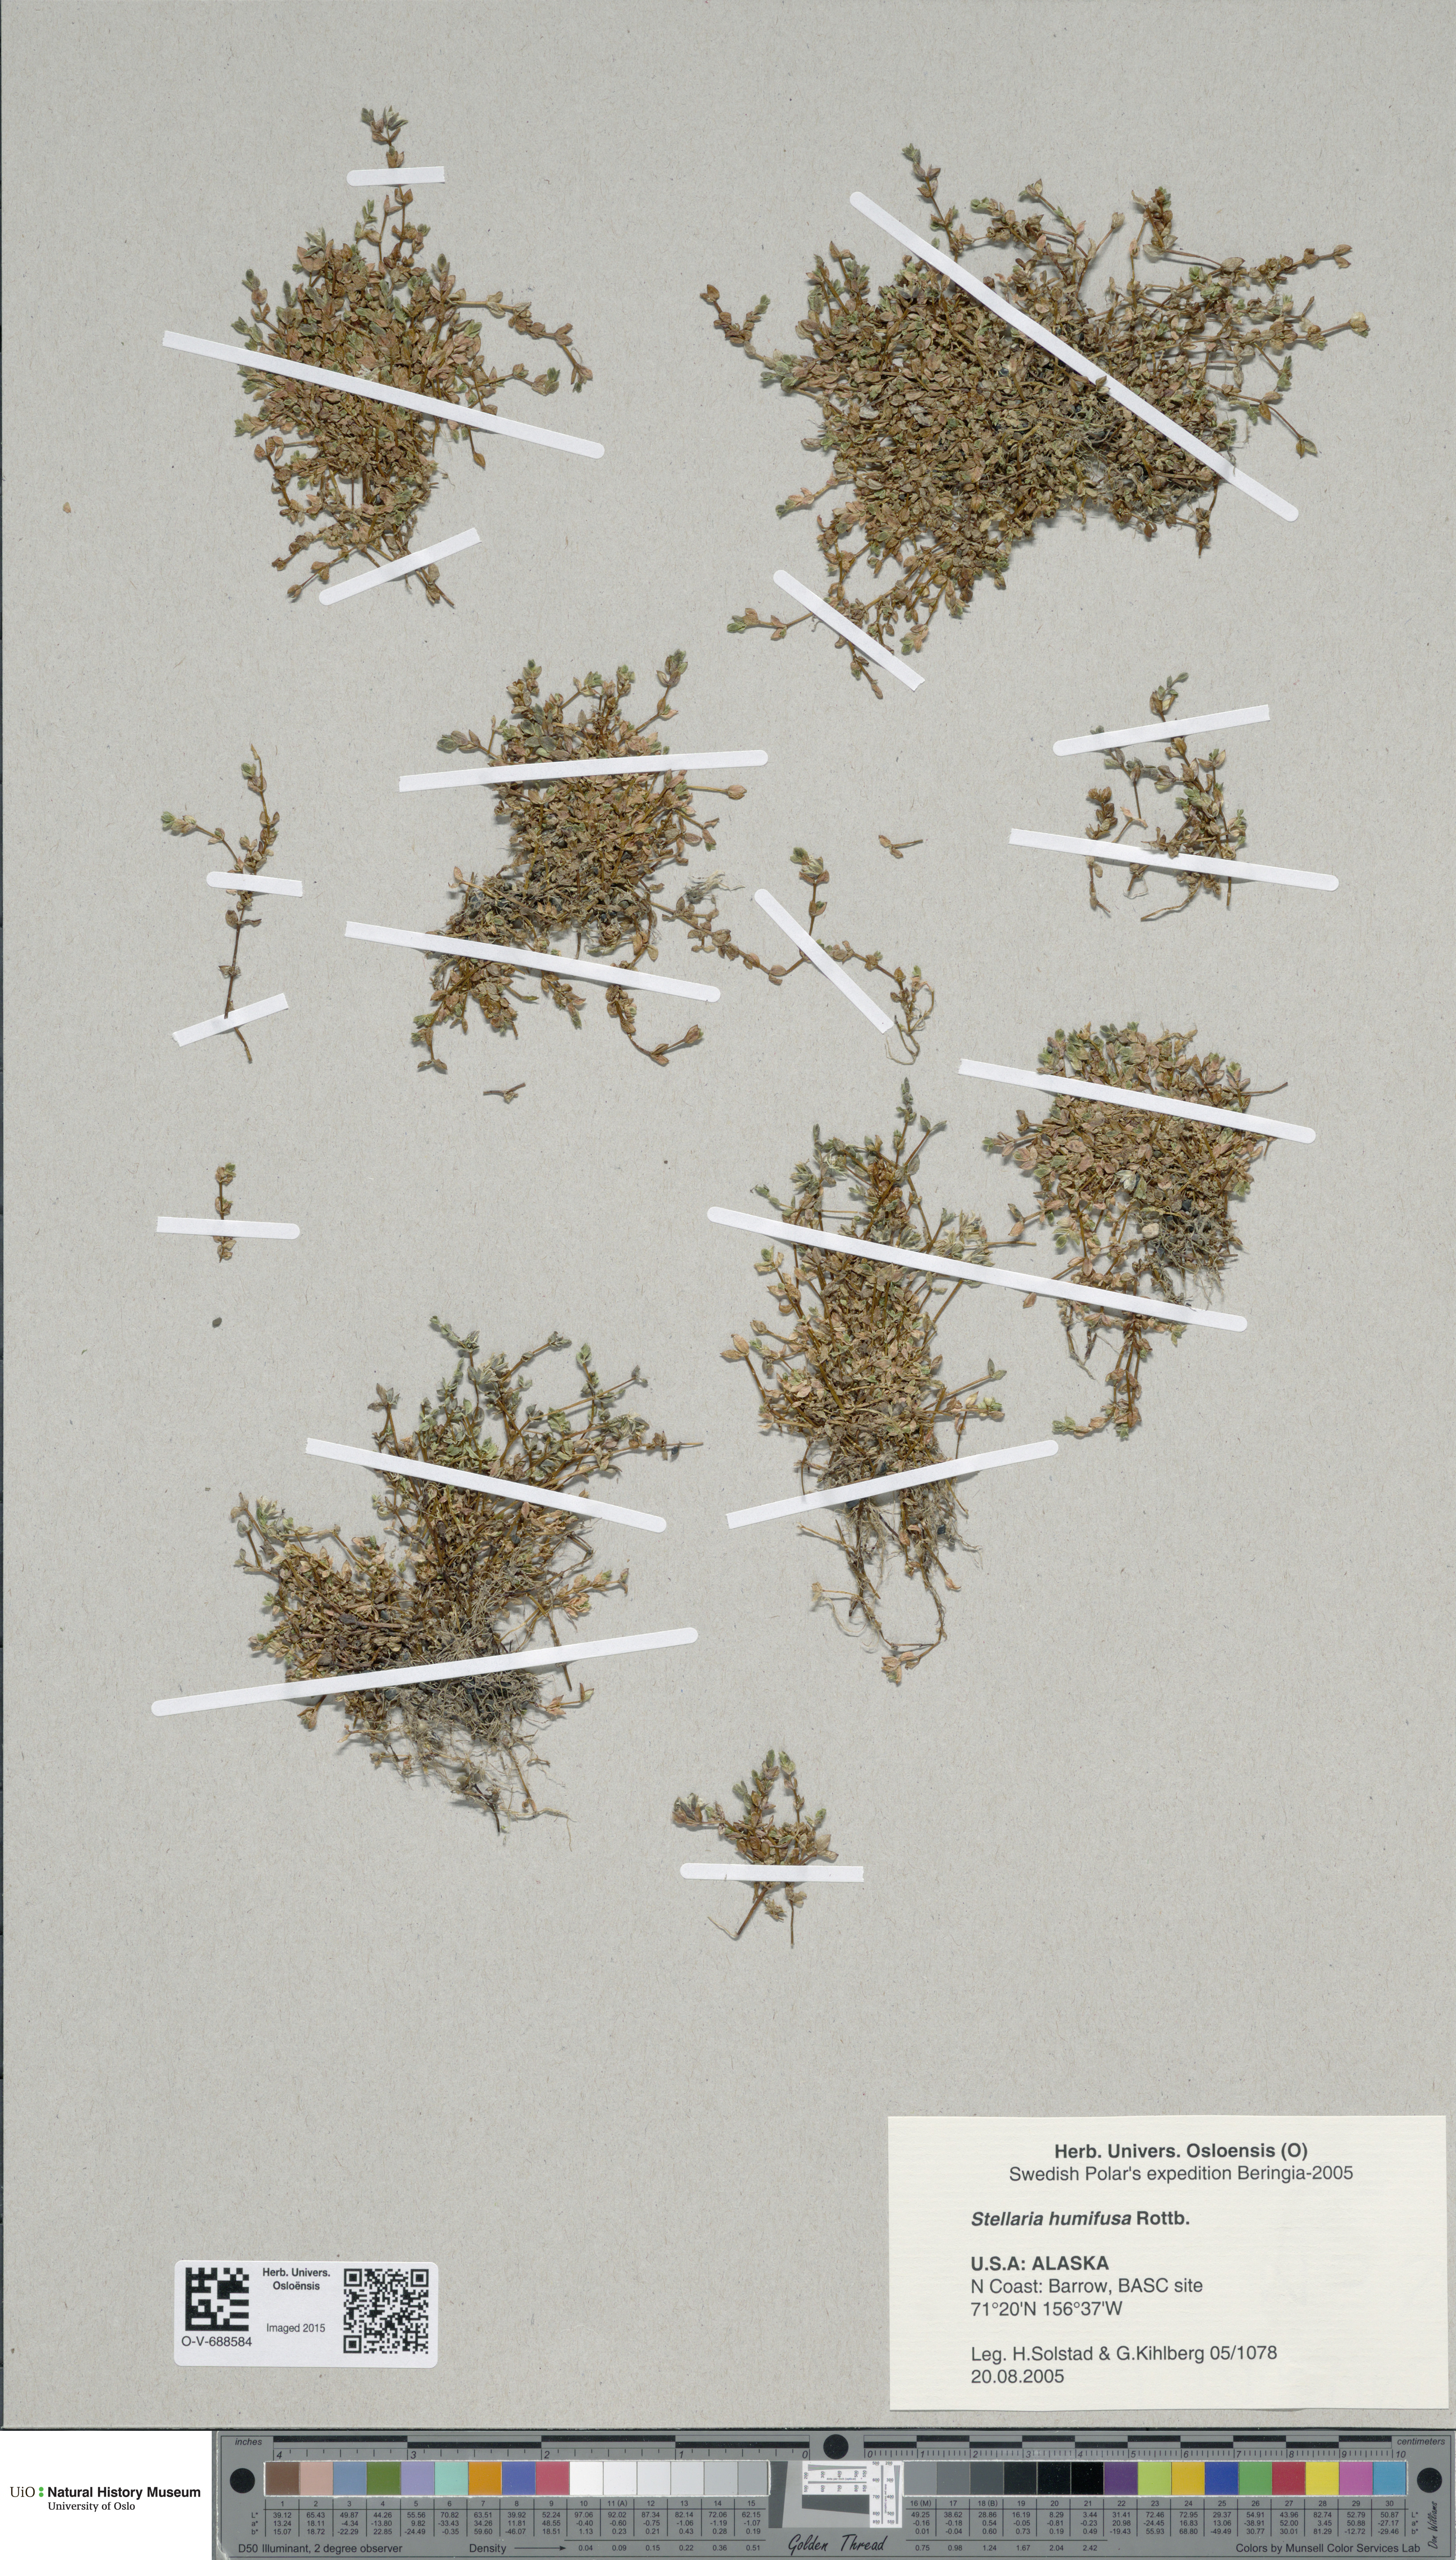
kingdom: Plantae
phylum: Tracheophyta
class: Magnoliopsida
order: Caryophyllales
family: Caryophyllaceae
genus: Stellaria
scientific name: Stellaria humifusa
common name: Creeping starwort
